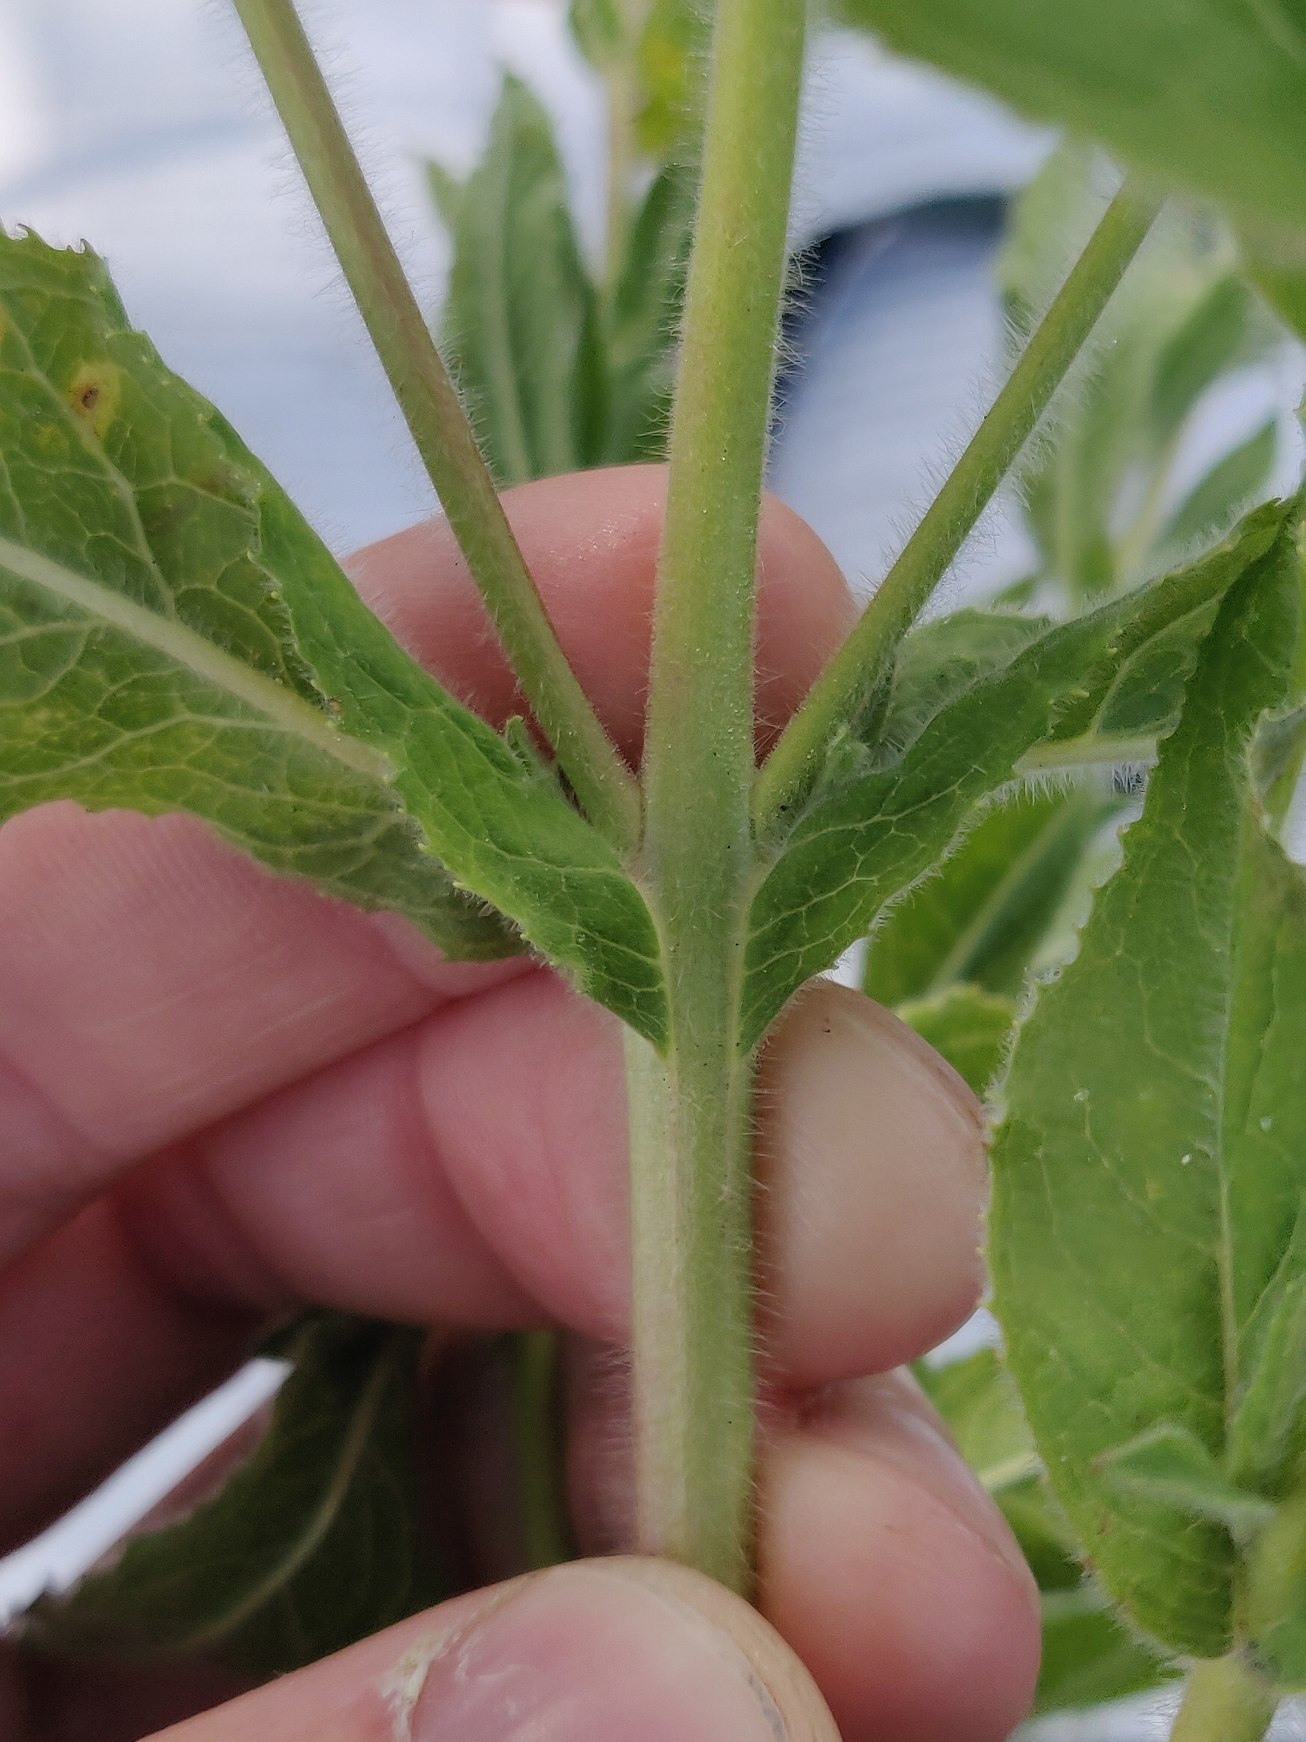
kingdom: Plantae
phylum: Tracheophyta
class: Magnoliopsida
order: Myrtales
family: Onagraceae
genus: Epilobium
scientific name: Epilobium hirsutum
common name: Lådden dueurt
